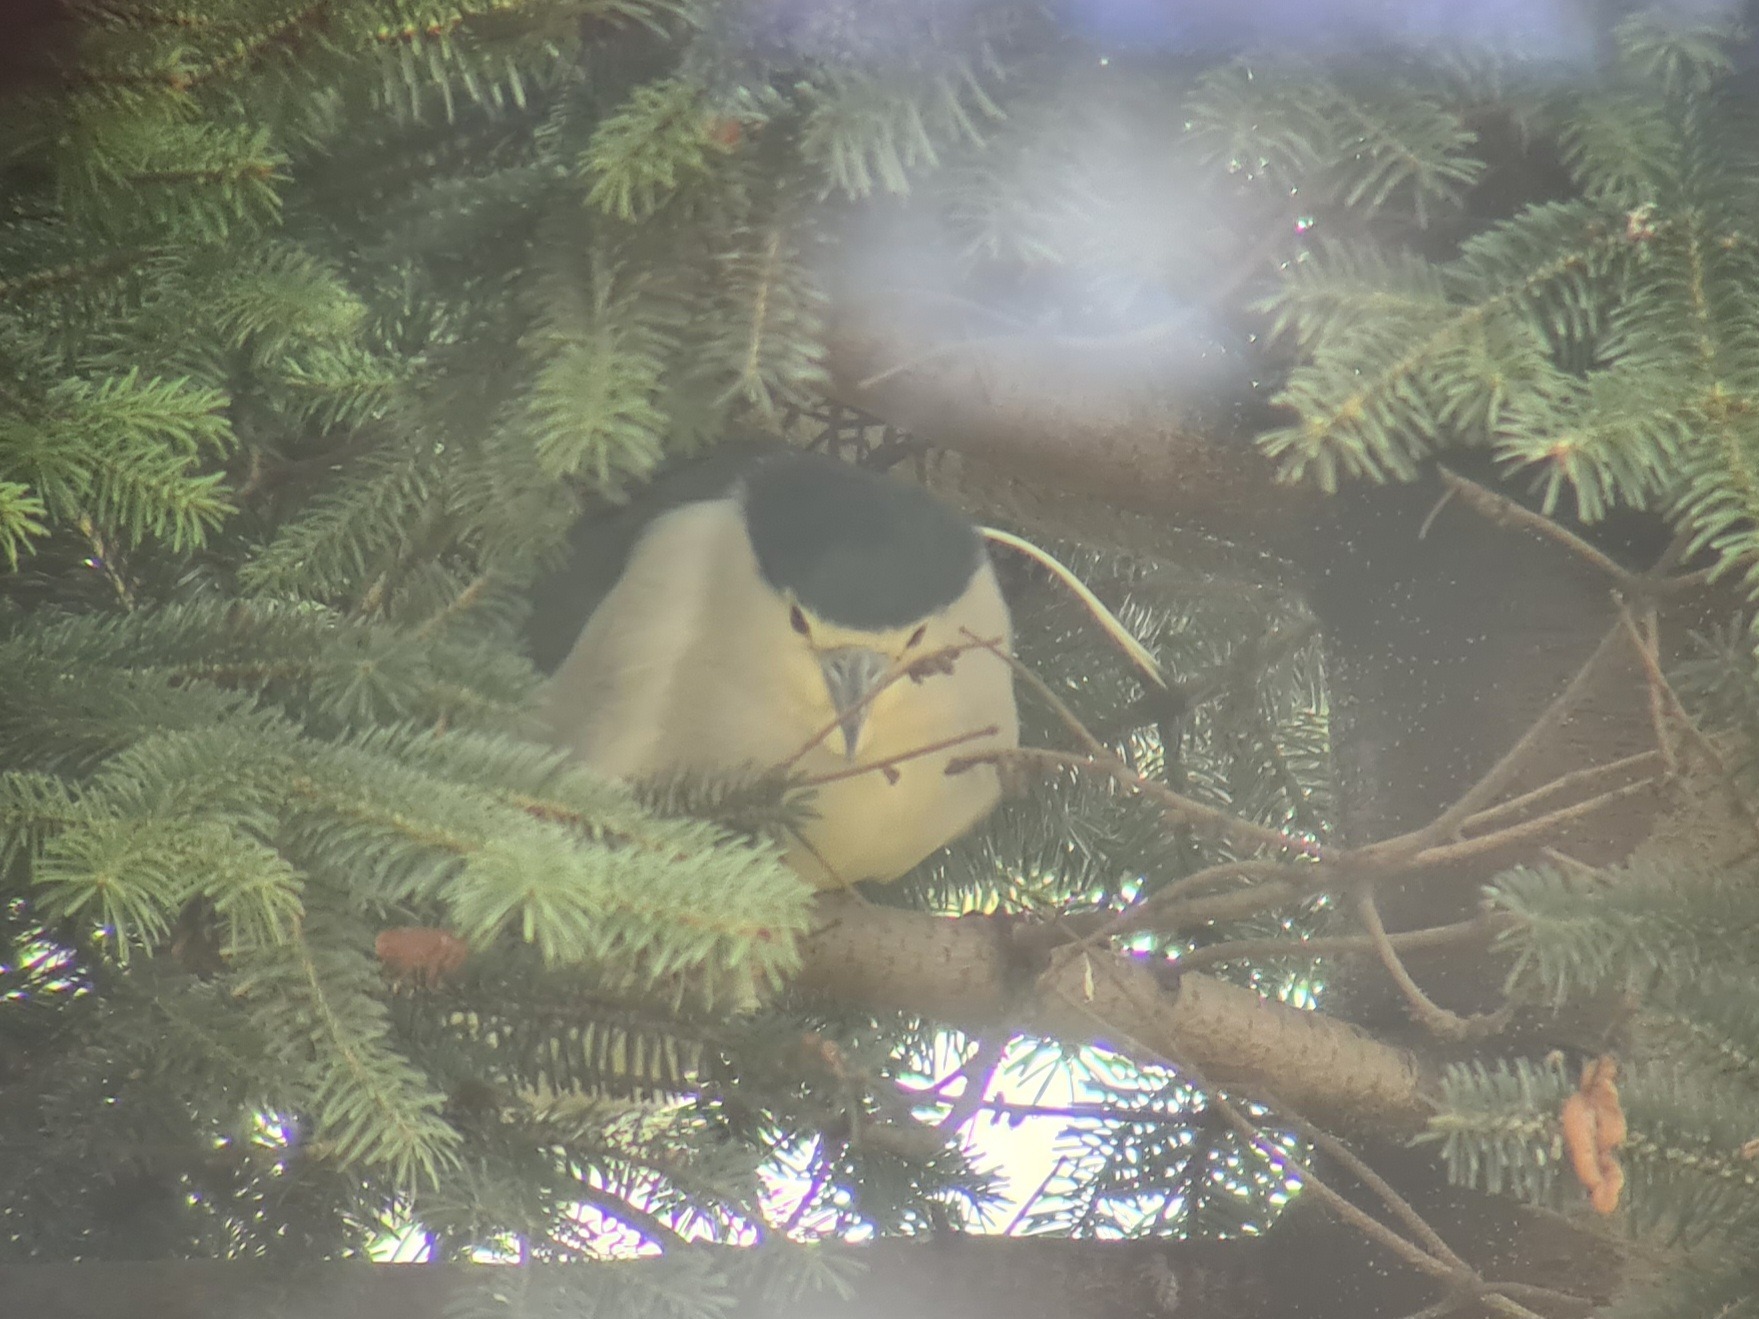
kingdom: Animalia
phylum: Chordata
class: Aves
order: Pelecaniformes
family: Ardeidae
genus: Nycticorax
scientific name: Nycticorax nycticorax
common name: Nathejre
